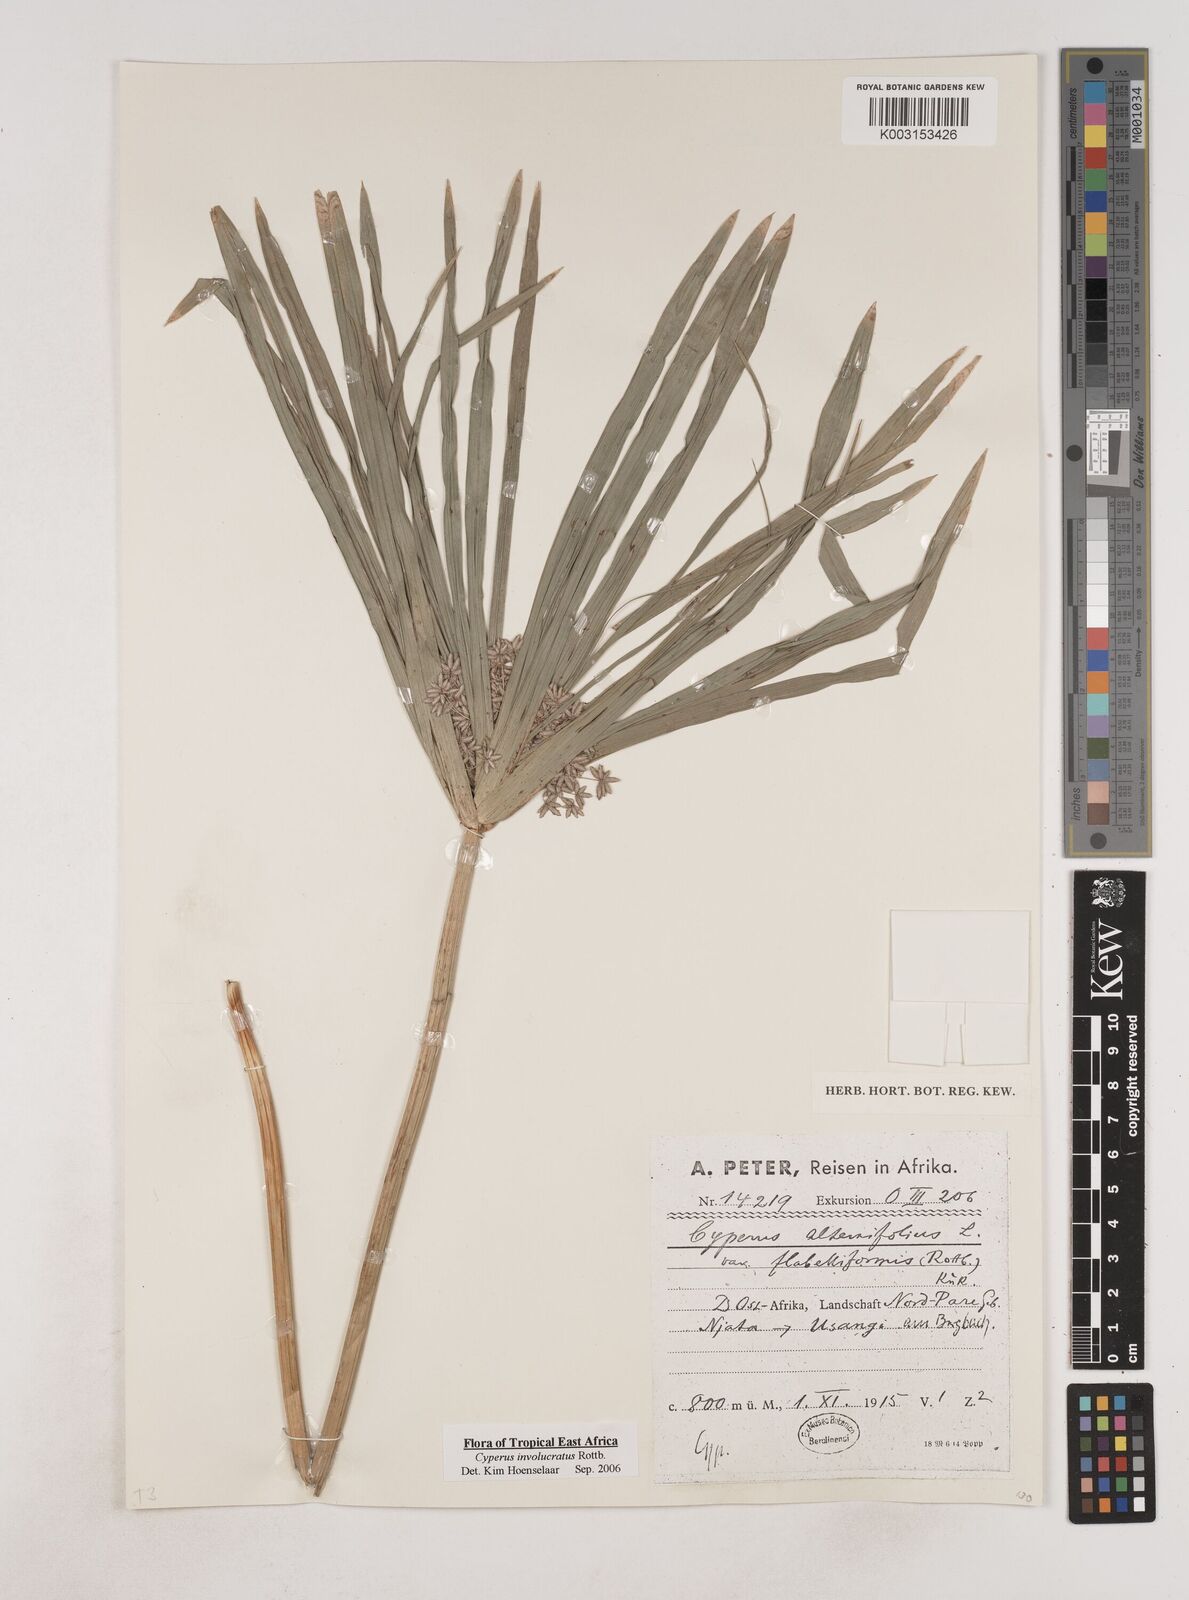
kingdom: Plantae
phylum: Tracheophyta
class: Liliopsida
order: Poales
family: Cyperaceae
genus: Cyperus
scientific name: Cyperus alternifolius
